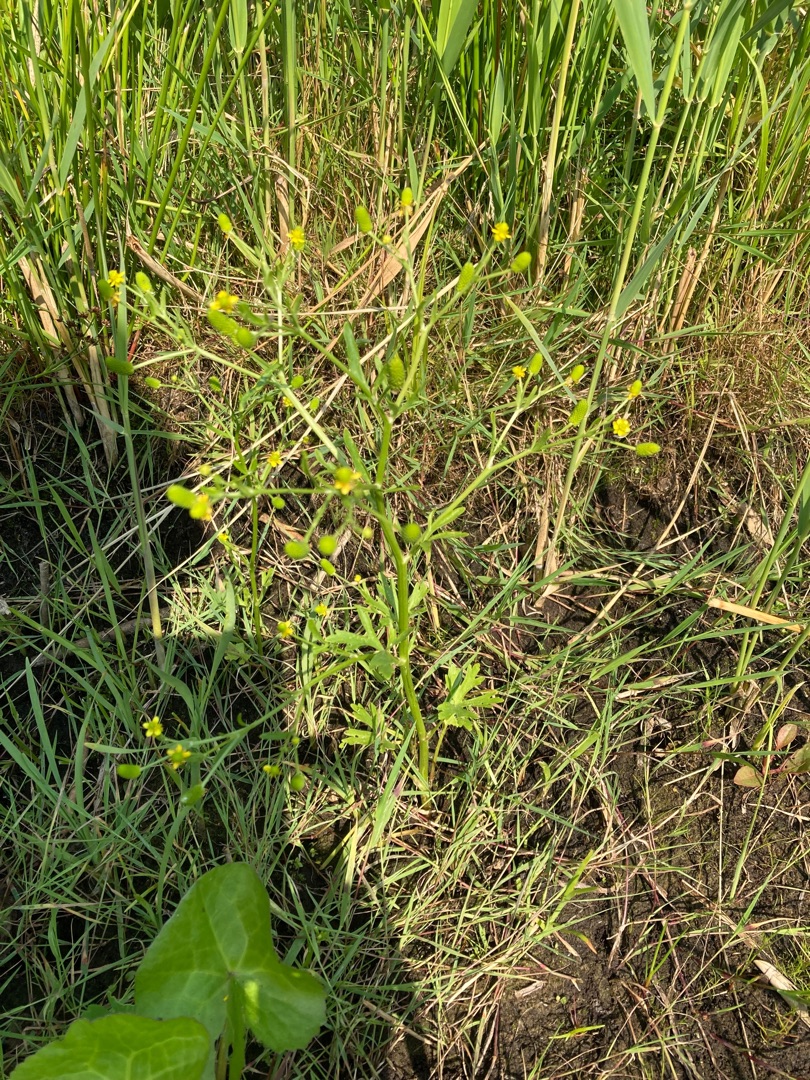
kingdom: Plantae
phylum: Tracheophyta
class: Magnoliopsida
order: Ranunculales
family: Ranunculaceae
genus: Ranunculus
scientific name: Ranunculus sceleratus
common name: Tigger-ranunkel
